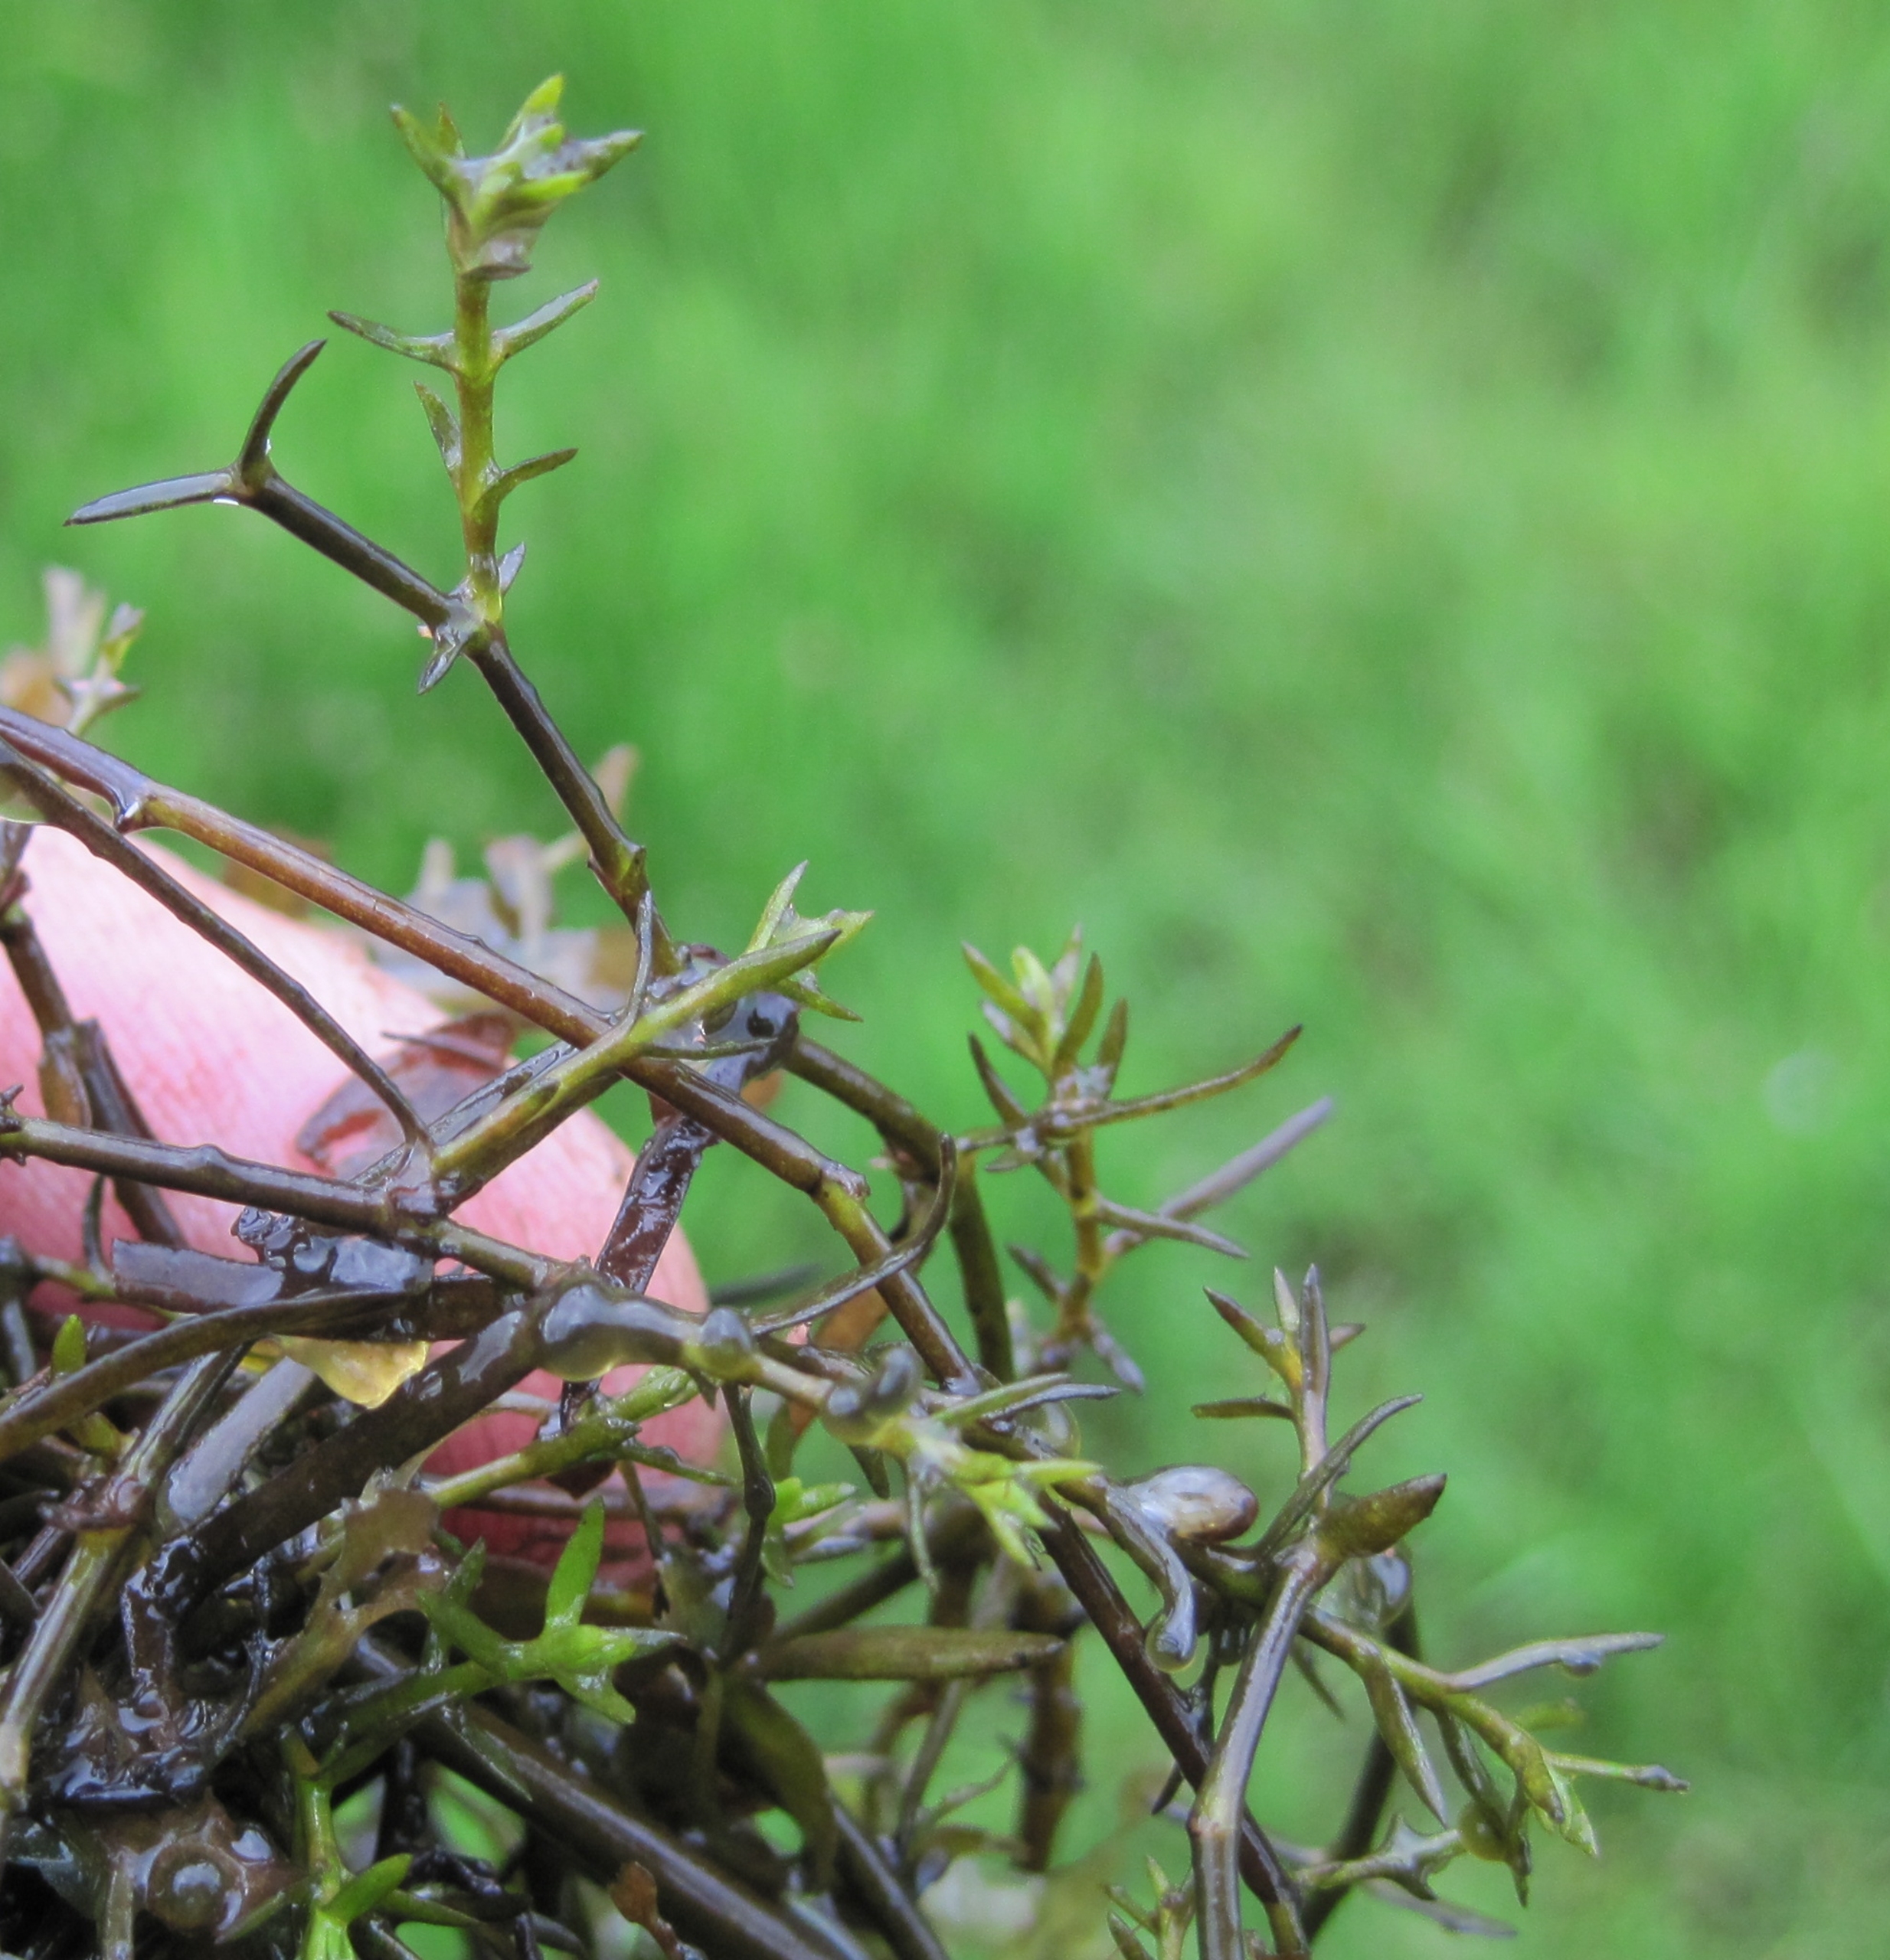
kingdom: Plantae
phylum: Tracheophyta
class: Magnoliopsida
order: Saxifragales
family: Crassulaceae
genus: Crassula
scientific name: Crassula helmsii
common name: New zealandsk korsarve
